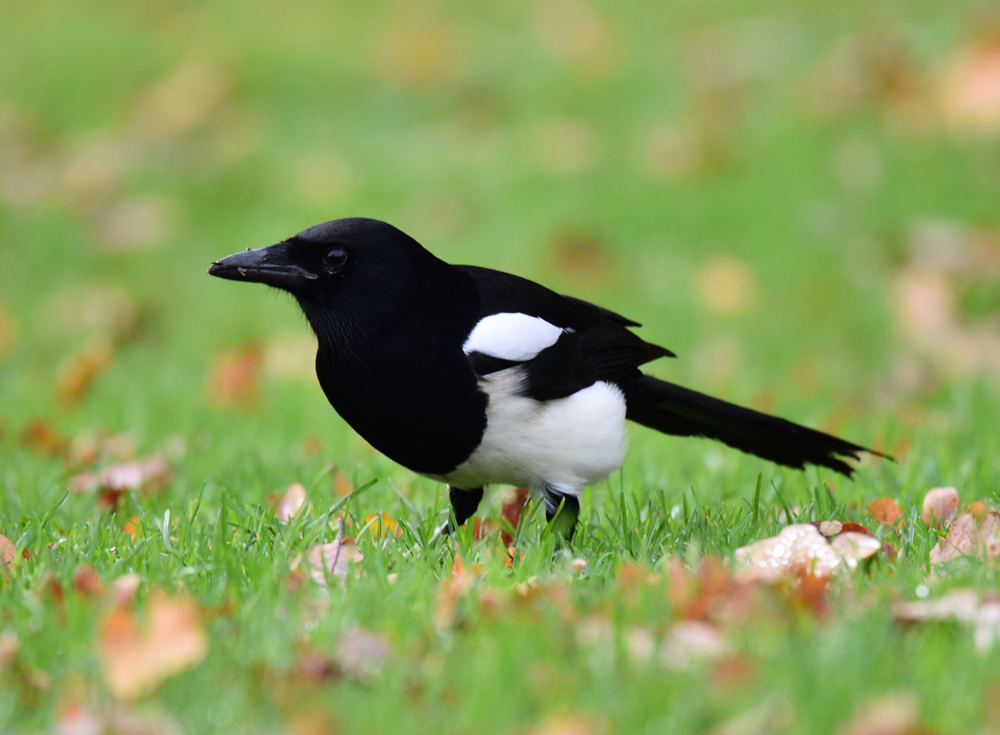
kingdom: Animalia
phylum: Chordata
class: Aves
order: Passeriformes
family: Corvidae
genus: Pica
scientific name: Pica pica
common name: Eurasian magpie
